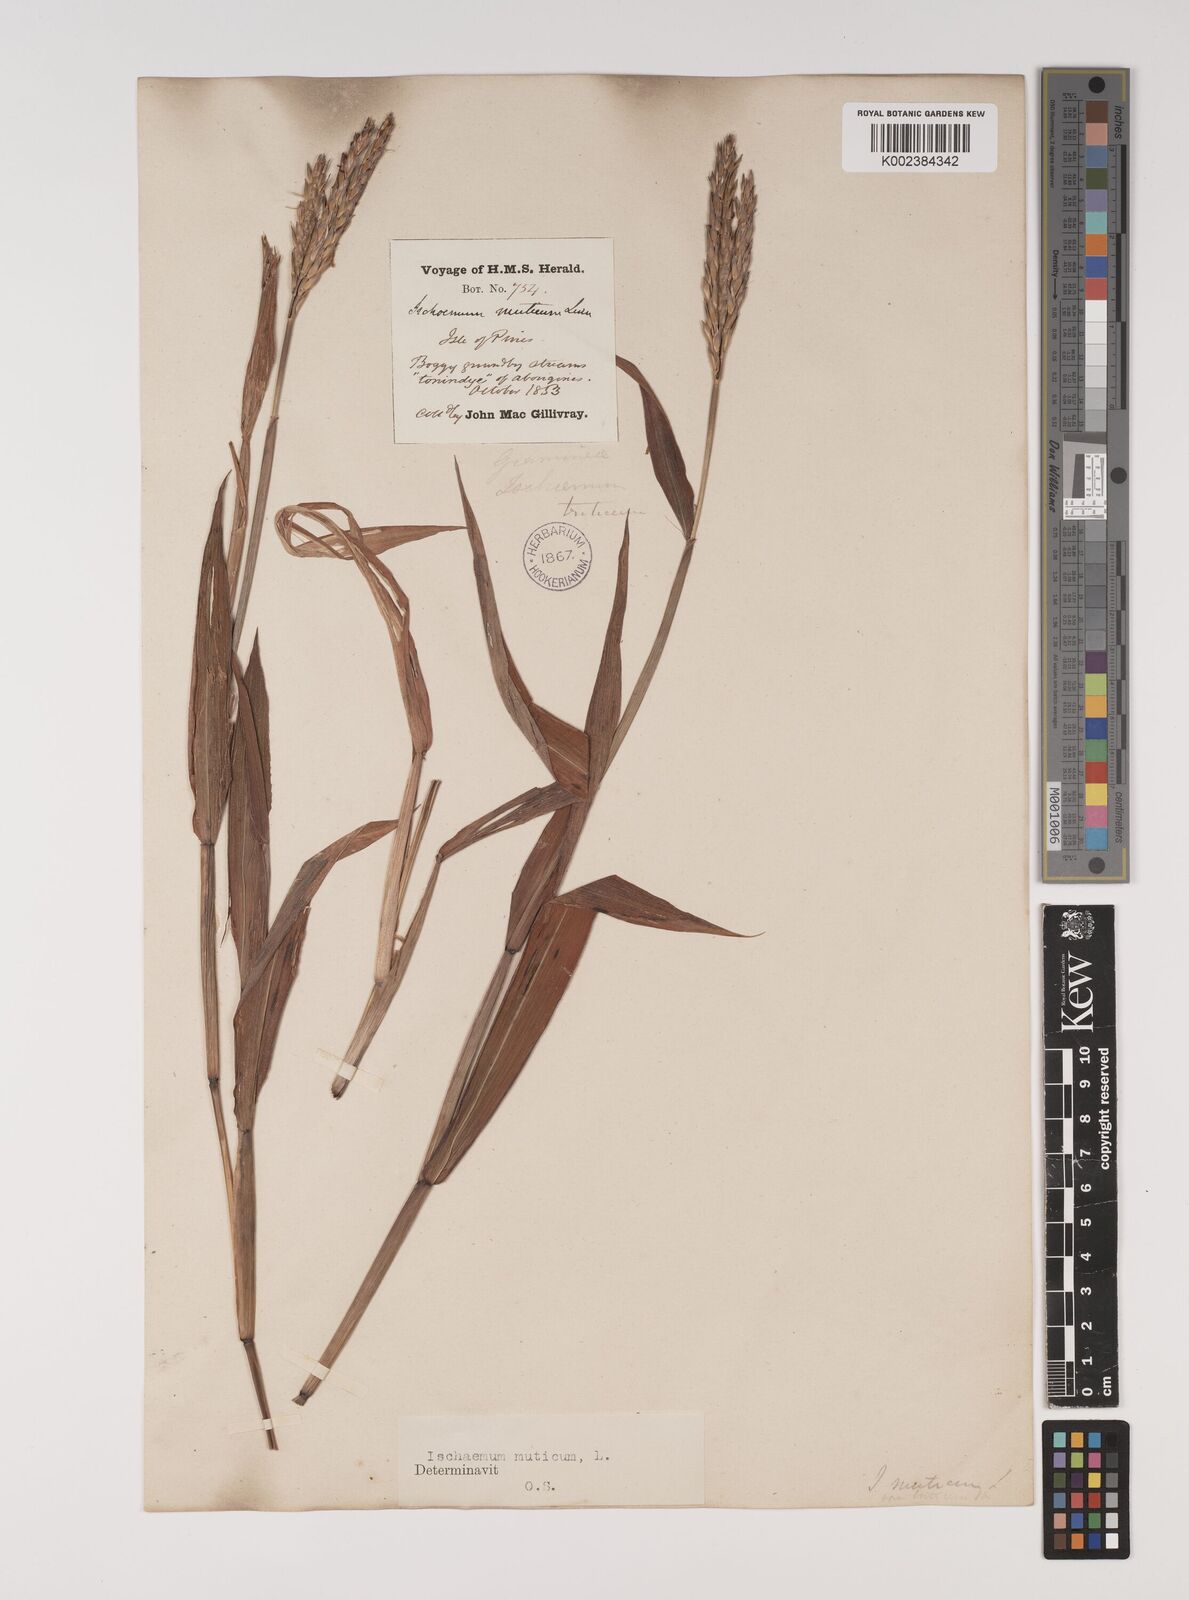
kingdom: Plantae
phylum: Tracheophyta
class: Liliopsida
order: Poales
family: Poaceae
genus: Ischaemum
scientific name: Ischaemum muticum
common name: Drought grass
